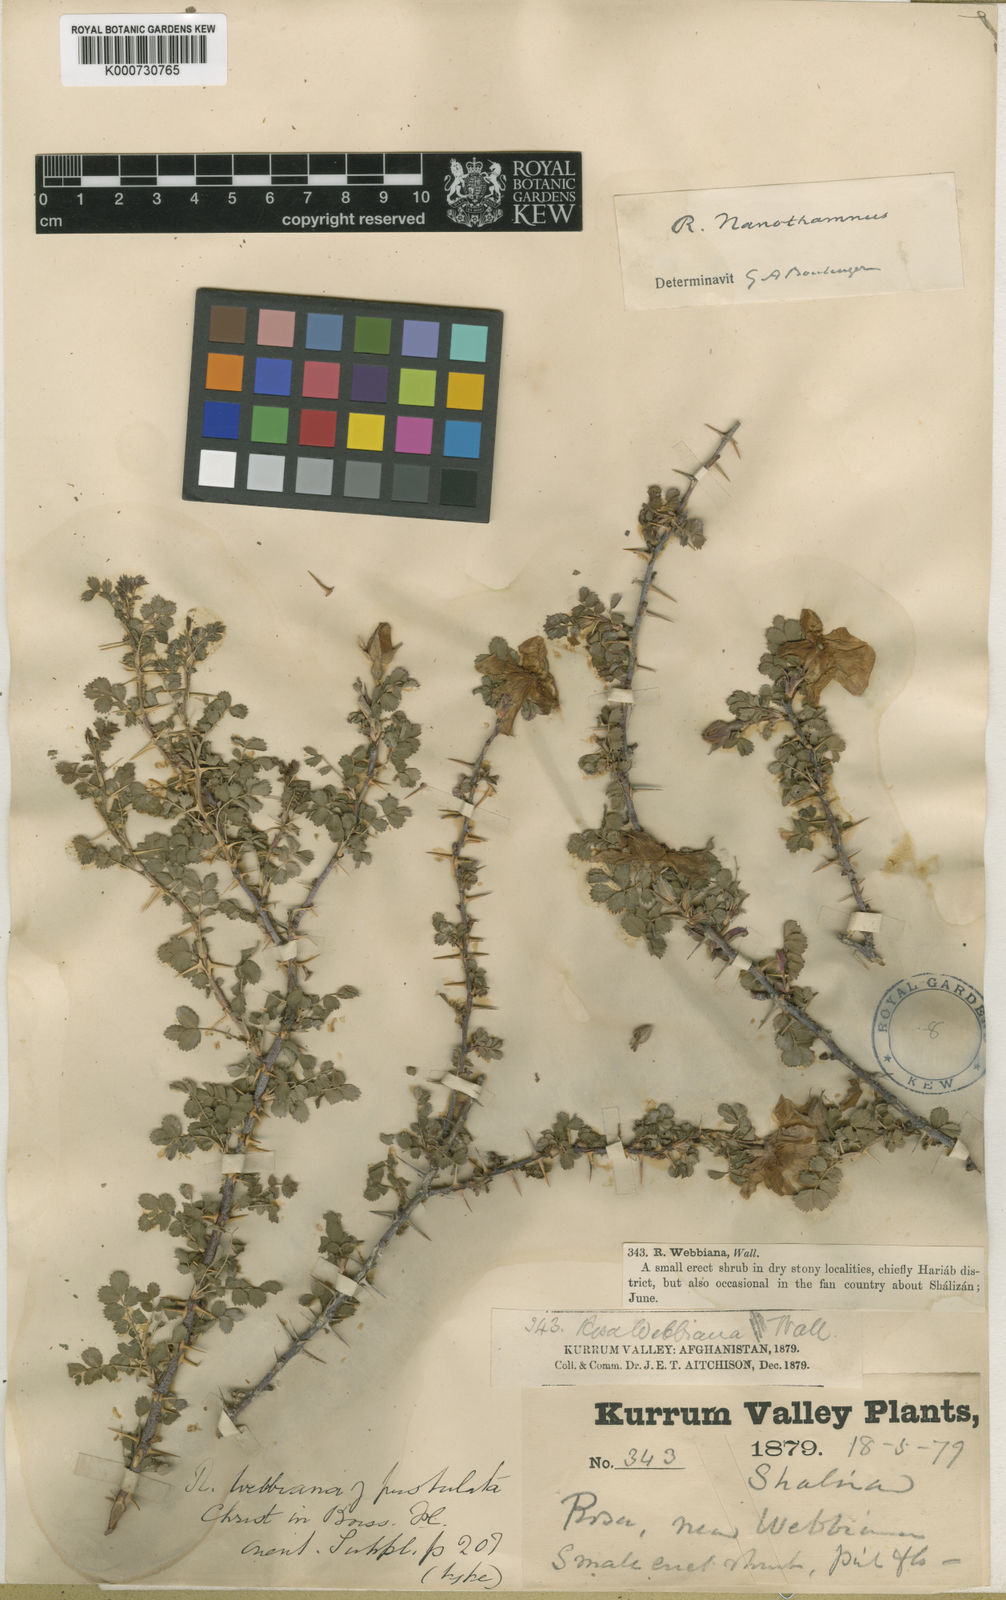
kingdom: Plantae
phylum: Tracheophyta
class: Magnoliopsida
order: Rosales
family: Rosaceae
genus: Rosa
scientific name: Rosa
